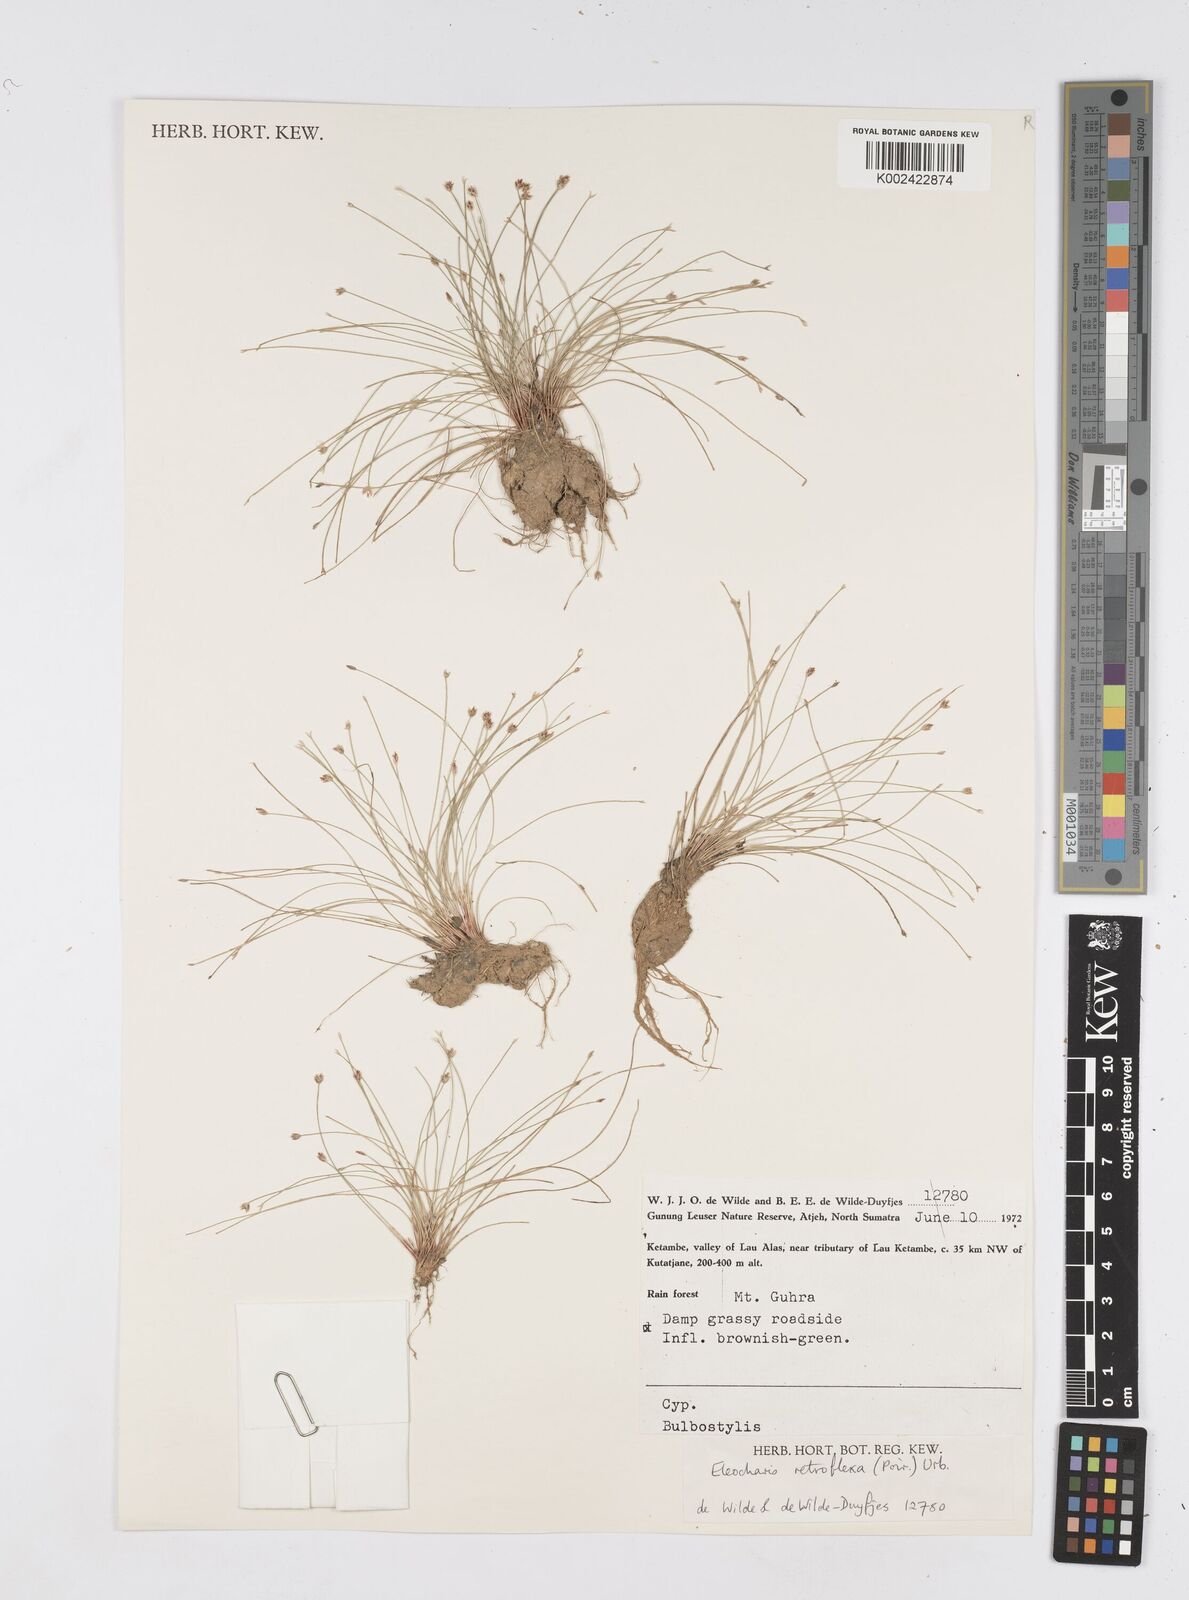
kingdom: Plantae
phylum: Tracheophyta
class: Liliopsida
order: Poales
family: Cyperaceae
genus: Eleocharis
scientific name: Eleocharis retroflexa
